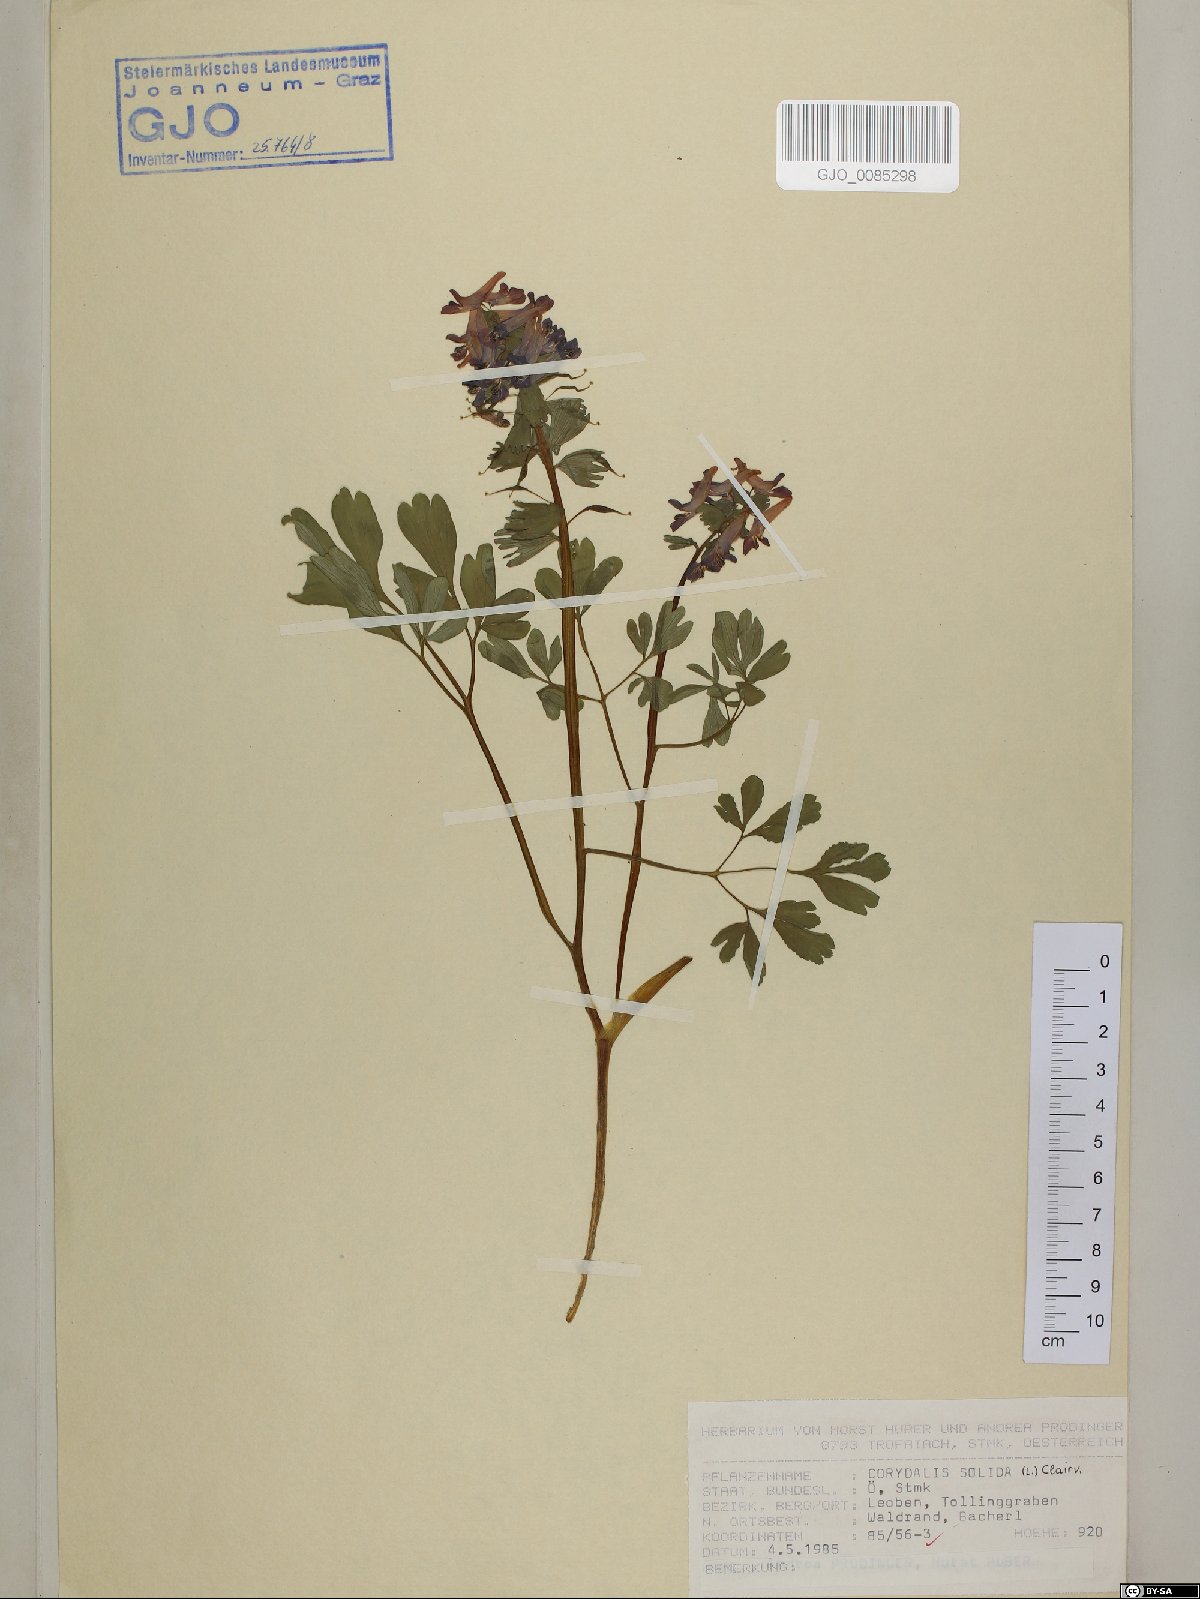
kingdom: Plantae
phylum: Tracheophyta
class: Magnoliopsida
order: Ranunculales
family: Papaveraceae
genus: Corydalis
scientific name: Corydalis solida
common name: Bird-in-a-bush
